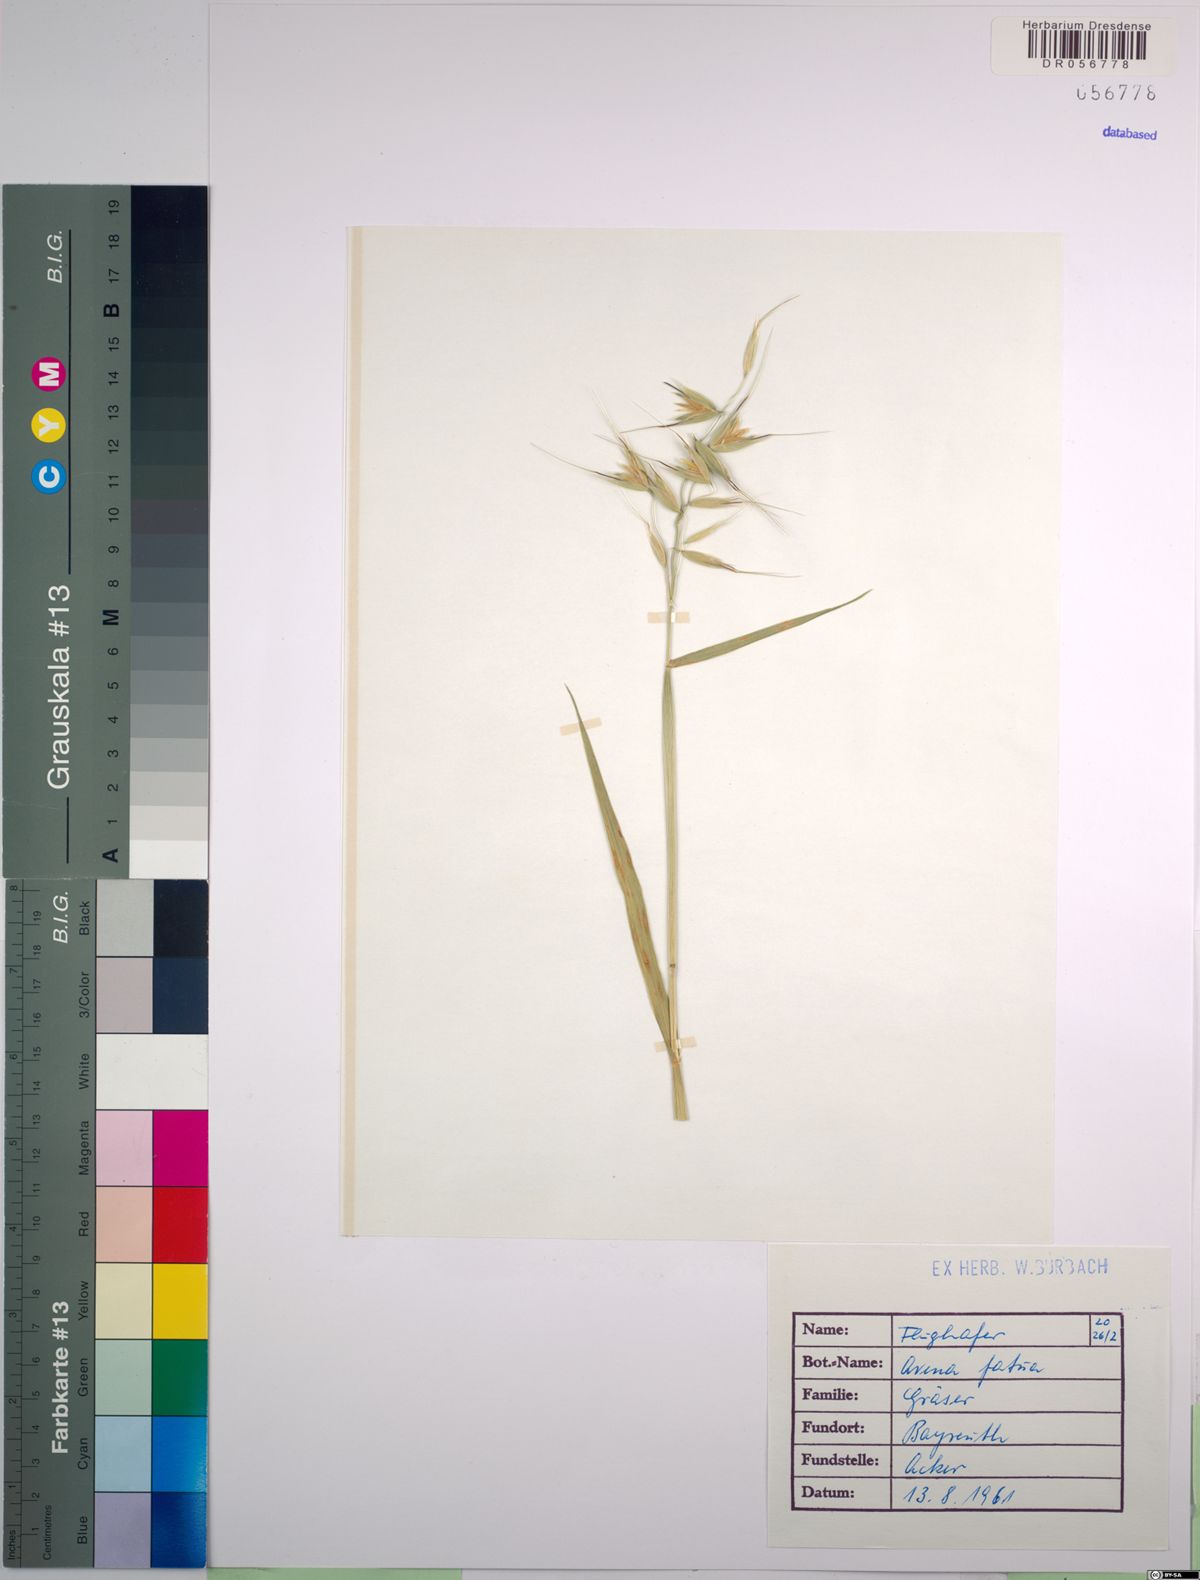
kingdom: Plantae
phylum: Tracheophyta
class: Liliopsida
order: Poales
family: Poaceae
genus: Avena
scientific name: Avena fatua
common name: Wild oat
